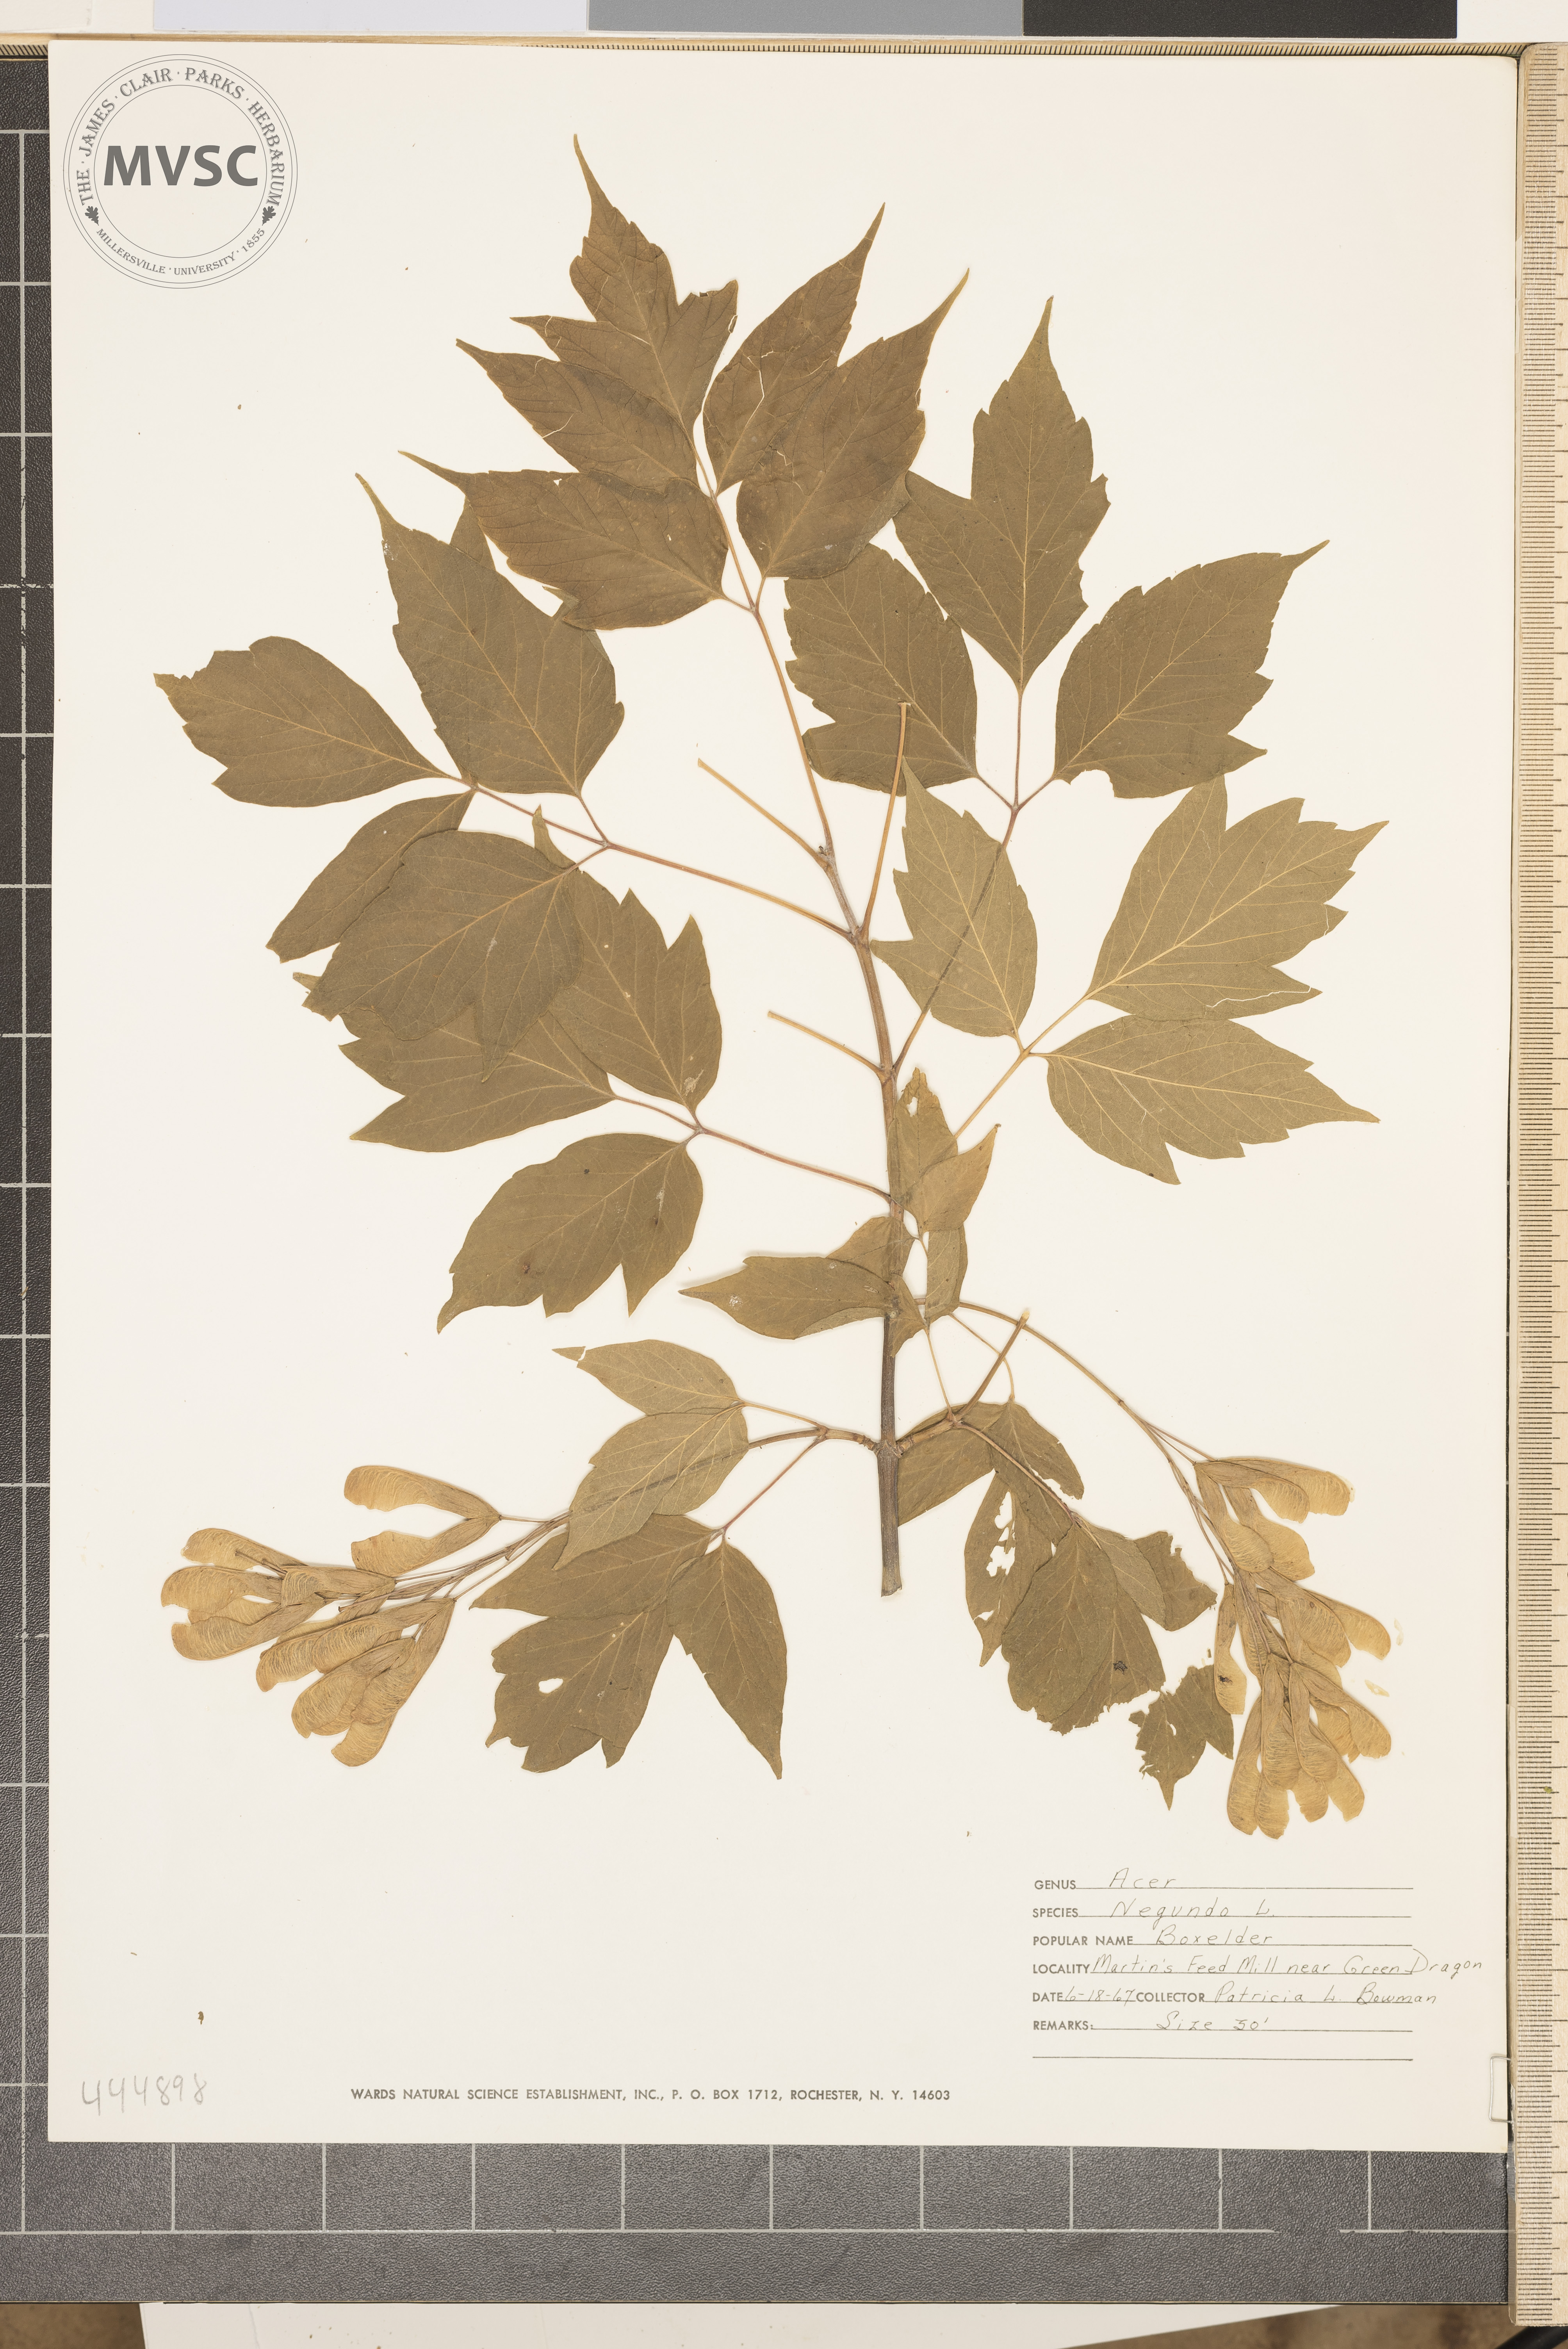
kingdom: Plantae
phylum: Tracheophyta
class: Magnoliopsida
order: Sapindales
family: Sapindaceae
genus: Acer
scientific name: Acer negundo
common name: Ashleaf maple
